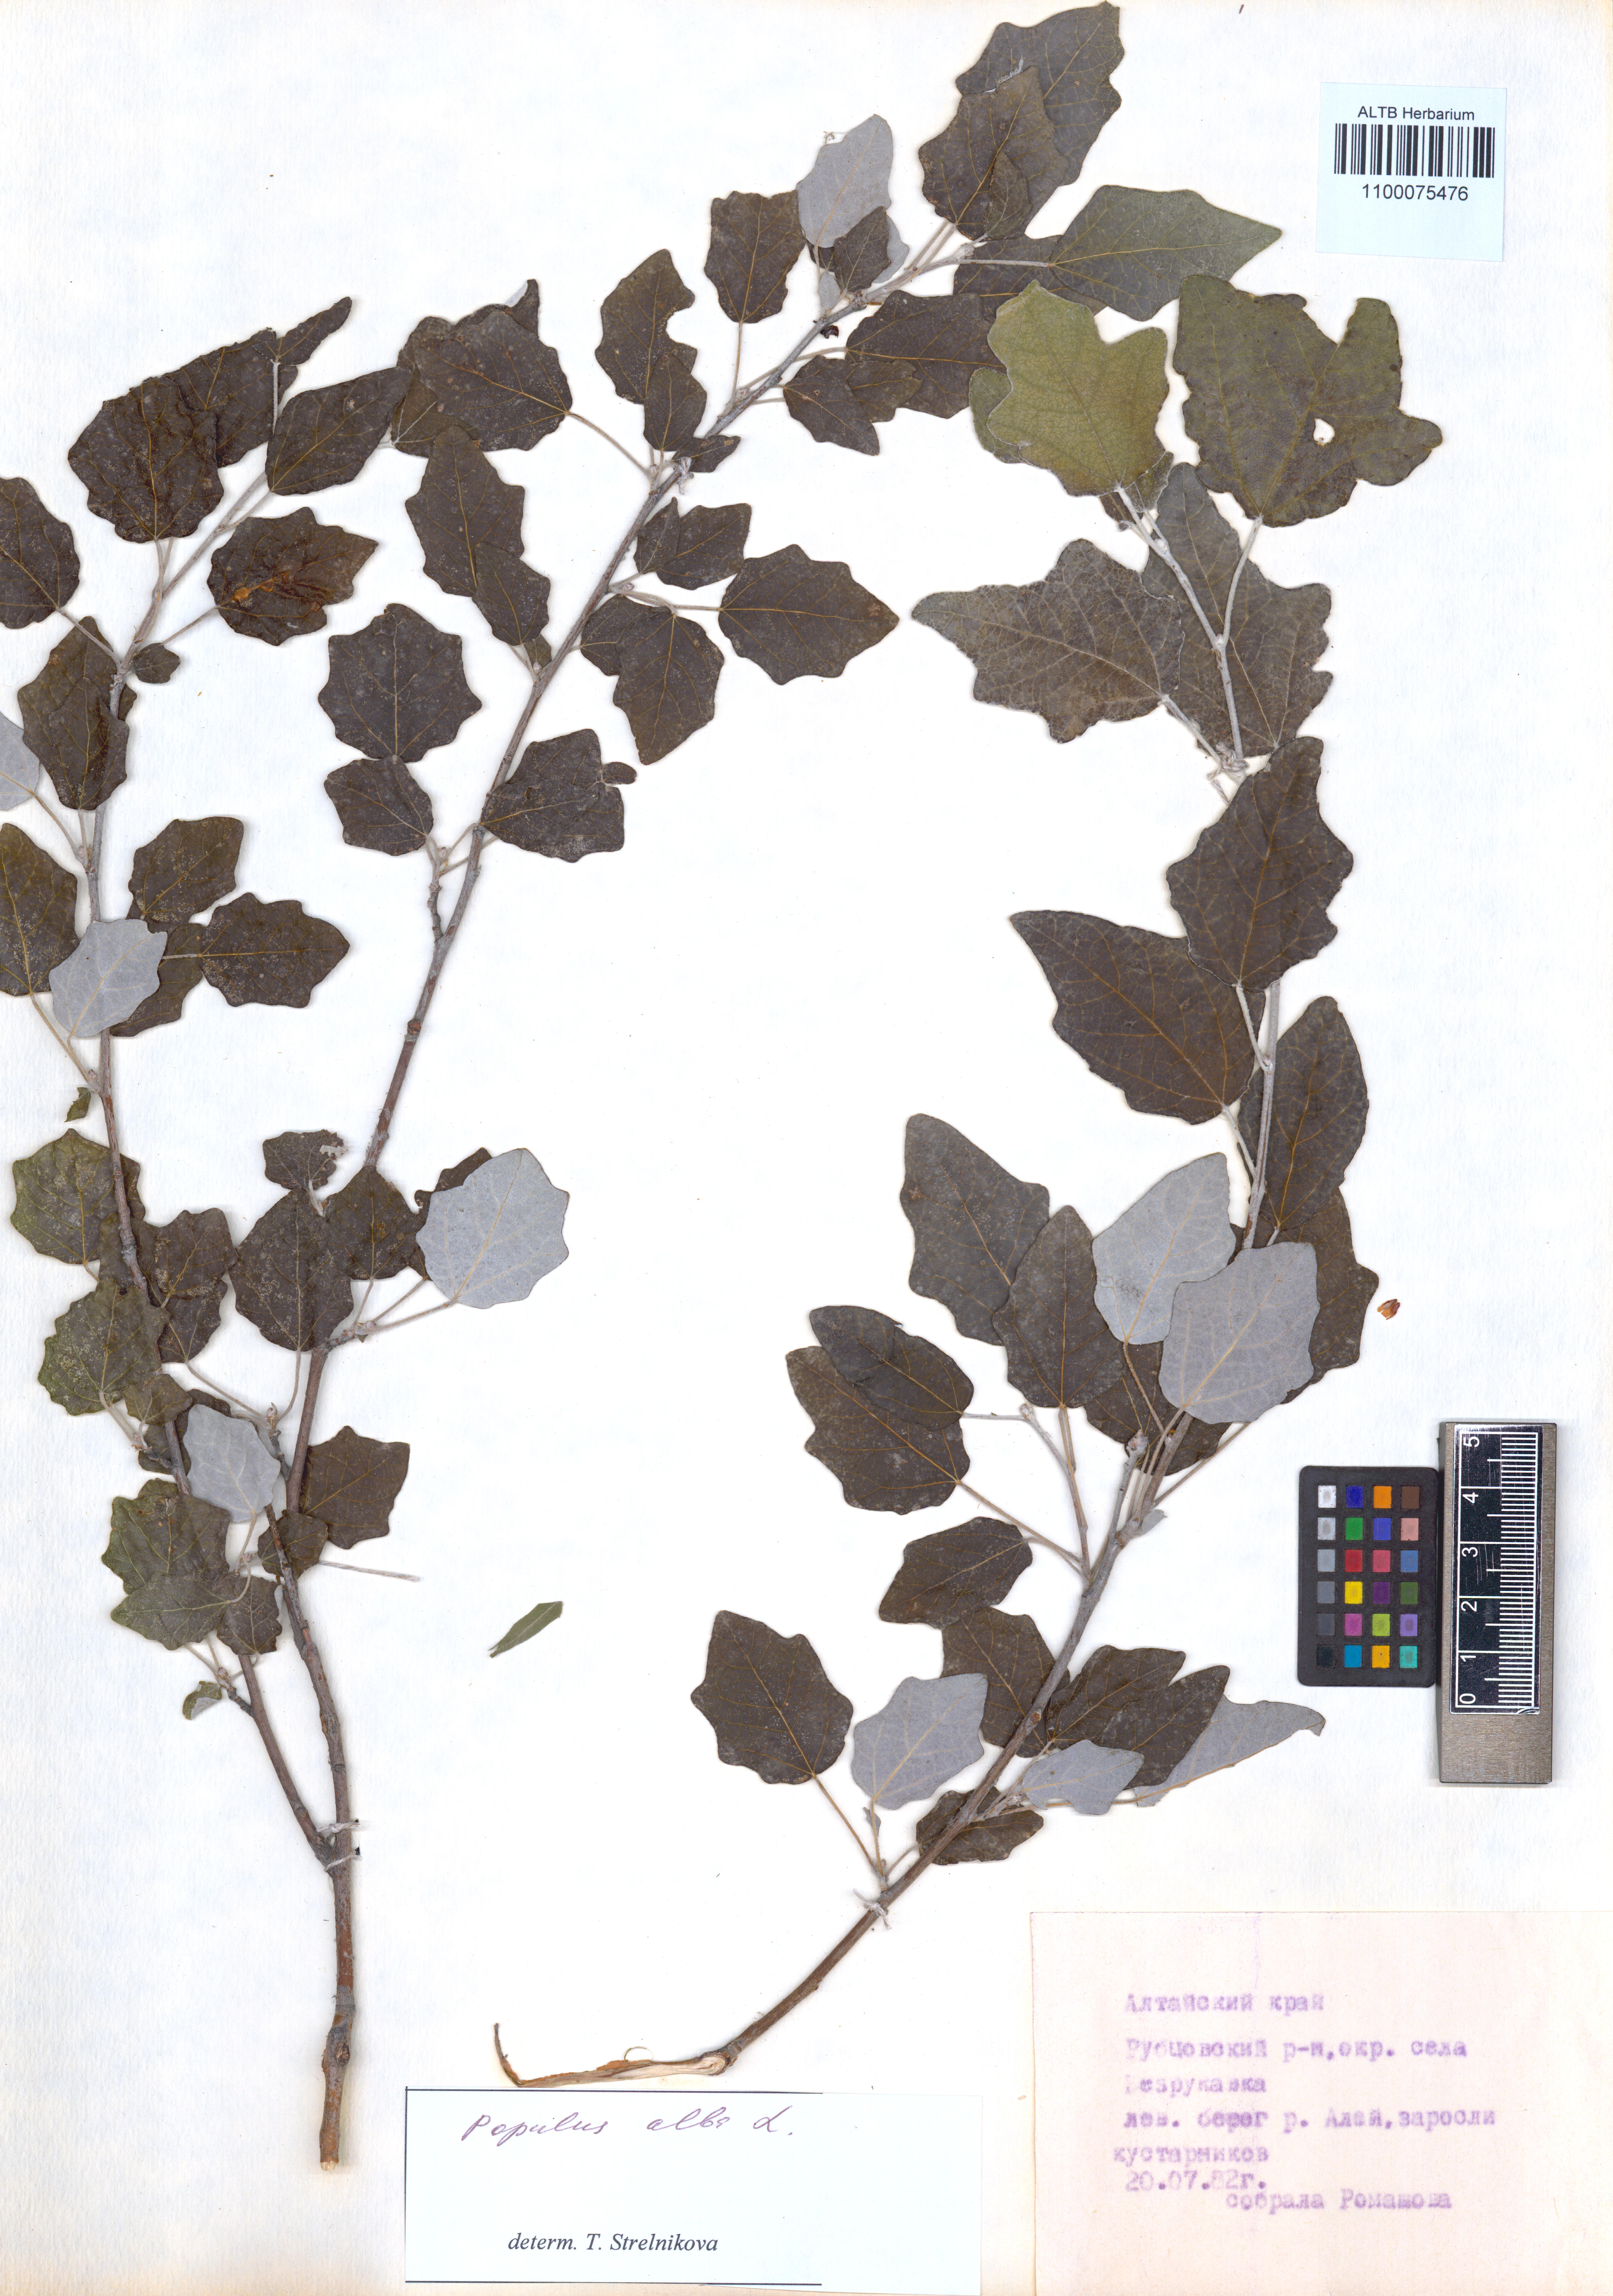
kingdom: Plantae
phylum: Tracheophyta
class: Magnoliopsida
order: Malpighiales
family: Salicaceae
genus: Populus
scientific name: Populus alba
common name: White poplar
